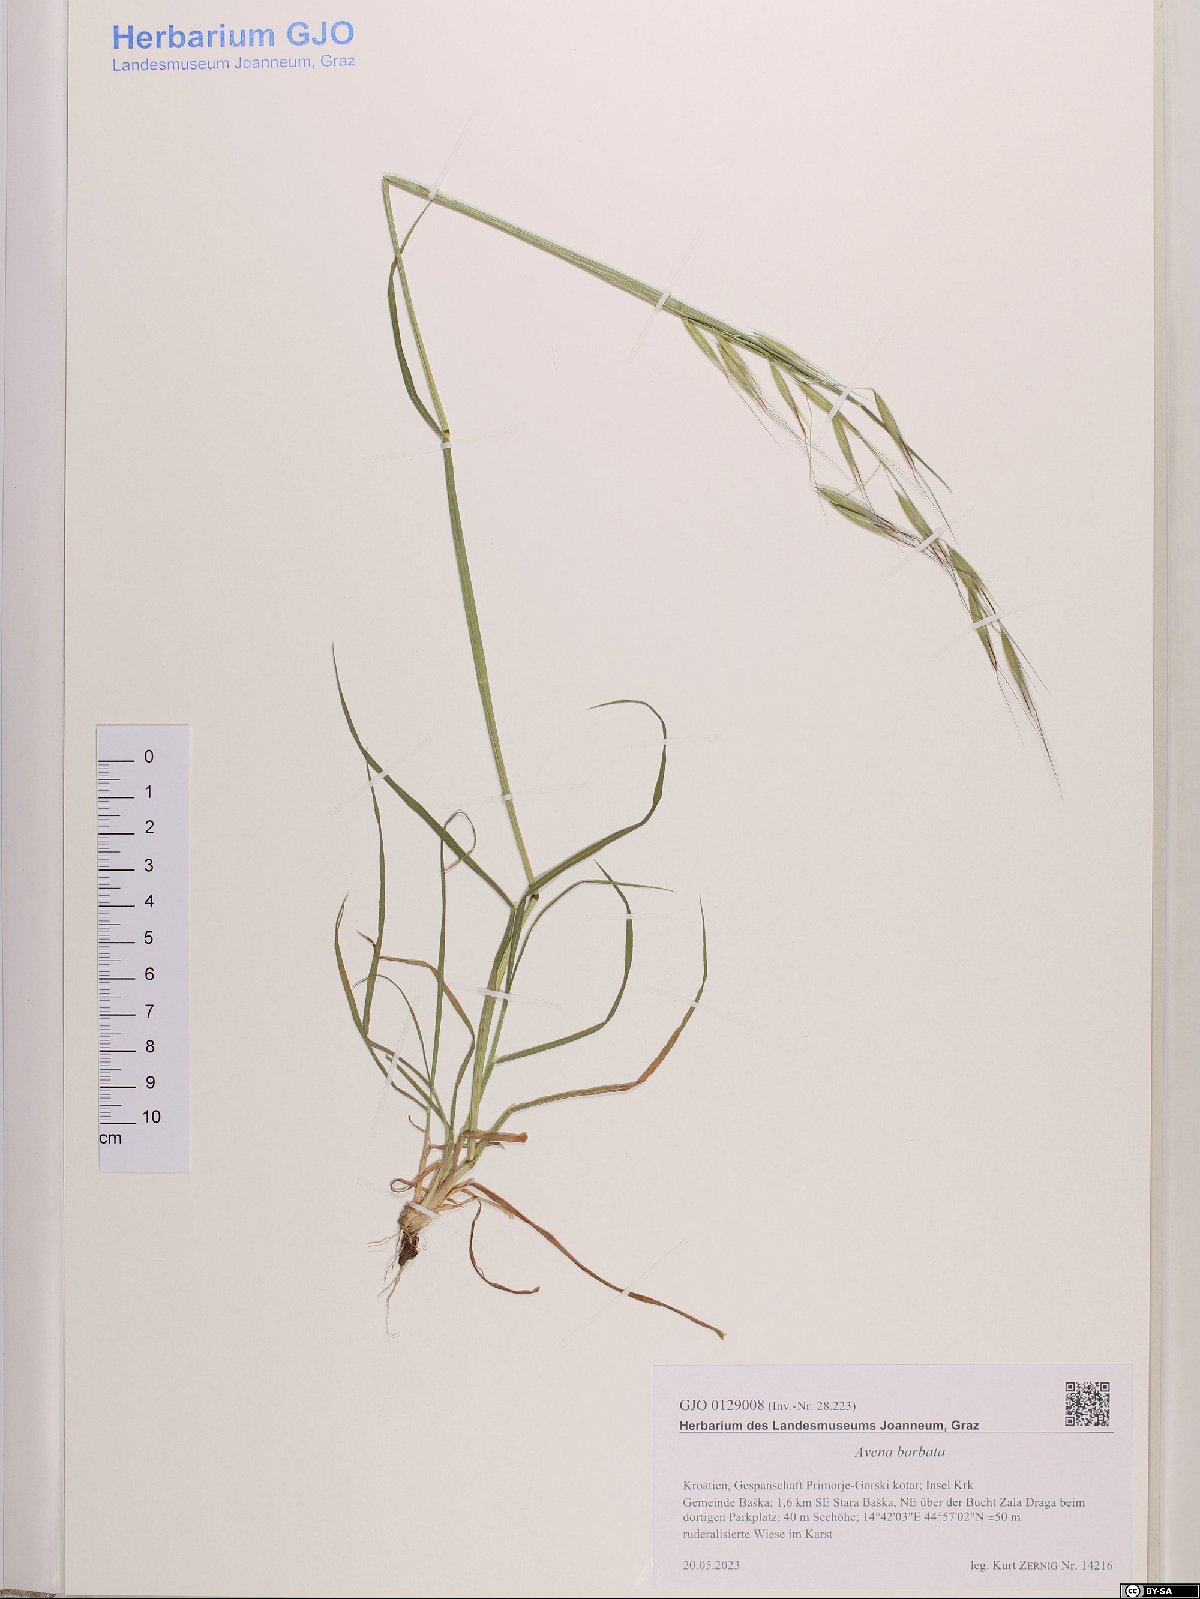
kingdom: Plantae
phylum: Tracheophyta
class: Liliopsida
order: Poales
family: Poaceae
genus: Avena
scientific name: Avena barbata
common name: Slender oat
